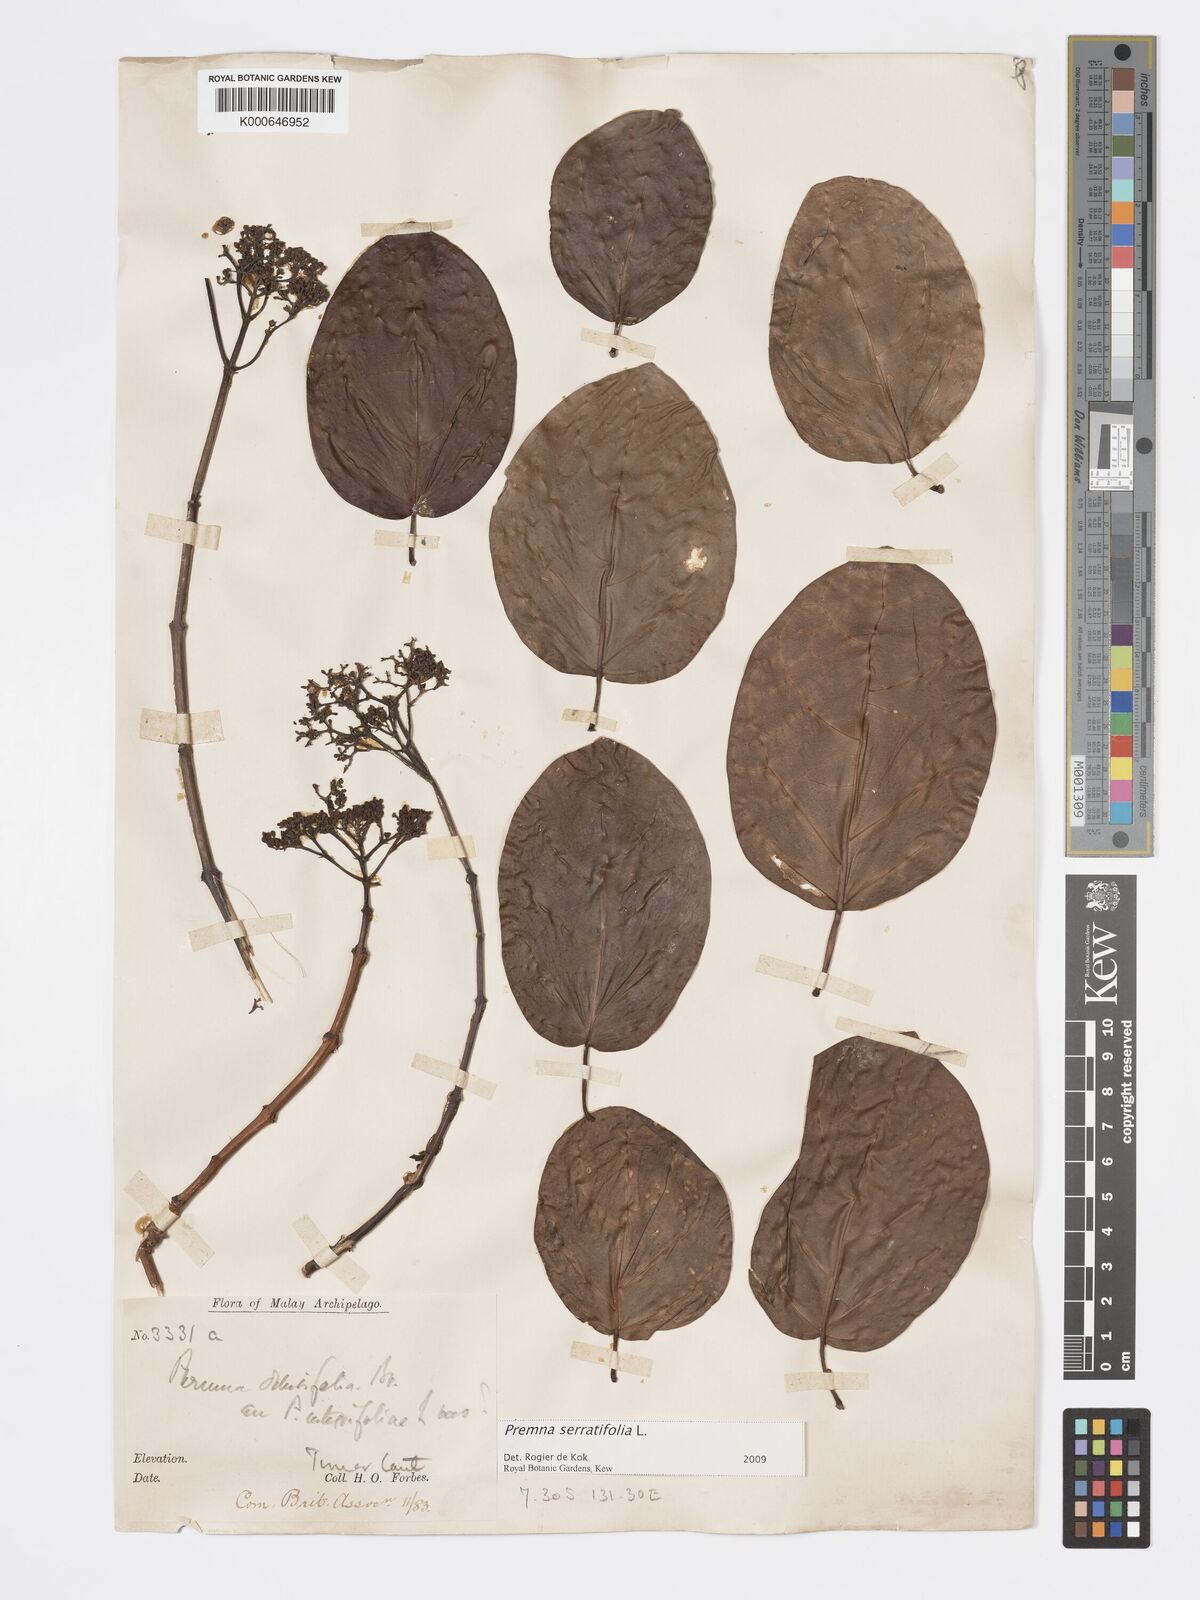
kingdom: Plantae
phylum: Tracheophyta
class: Magnoliopsida
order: Lamiales
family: Lamiaceae
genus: Premna
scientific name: Premna serratifolia
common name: Bastard guelder
